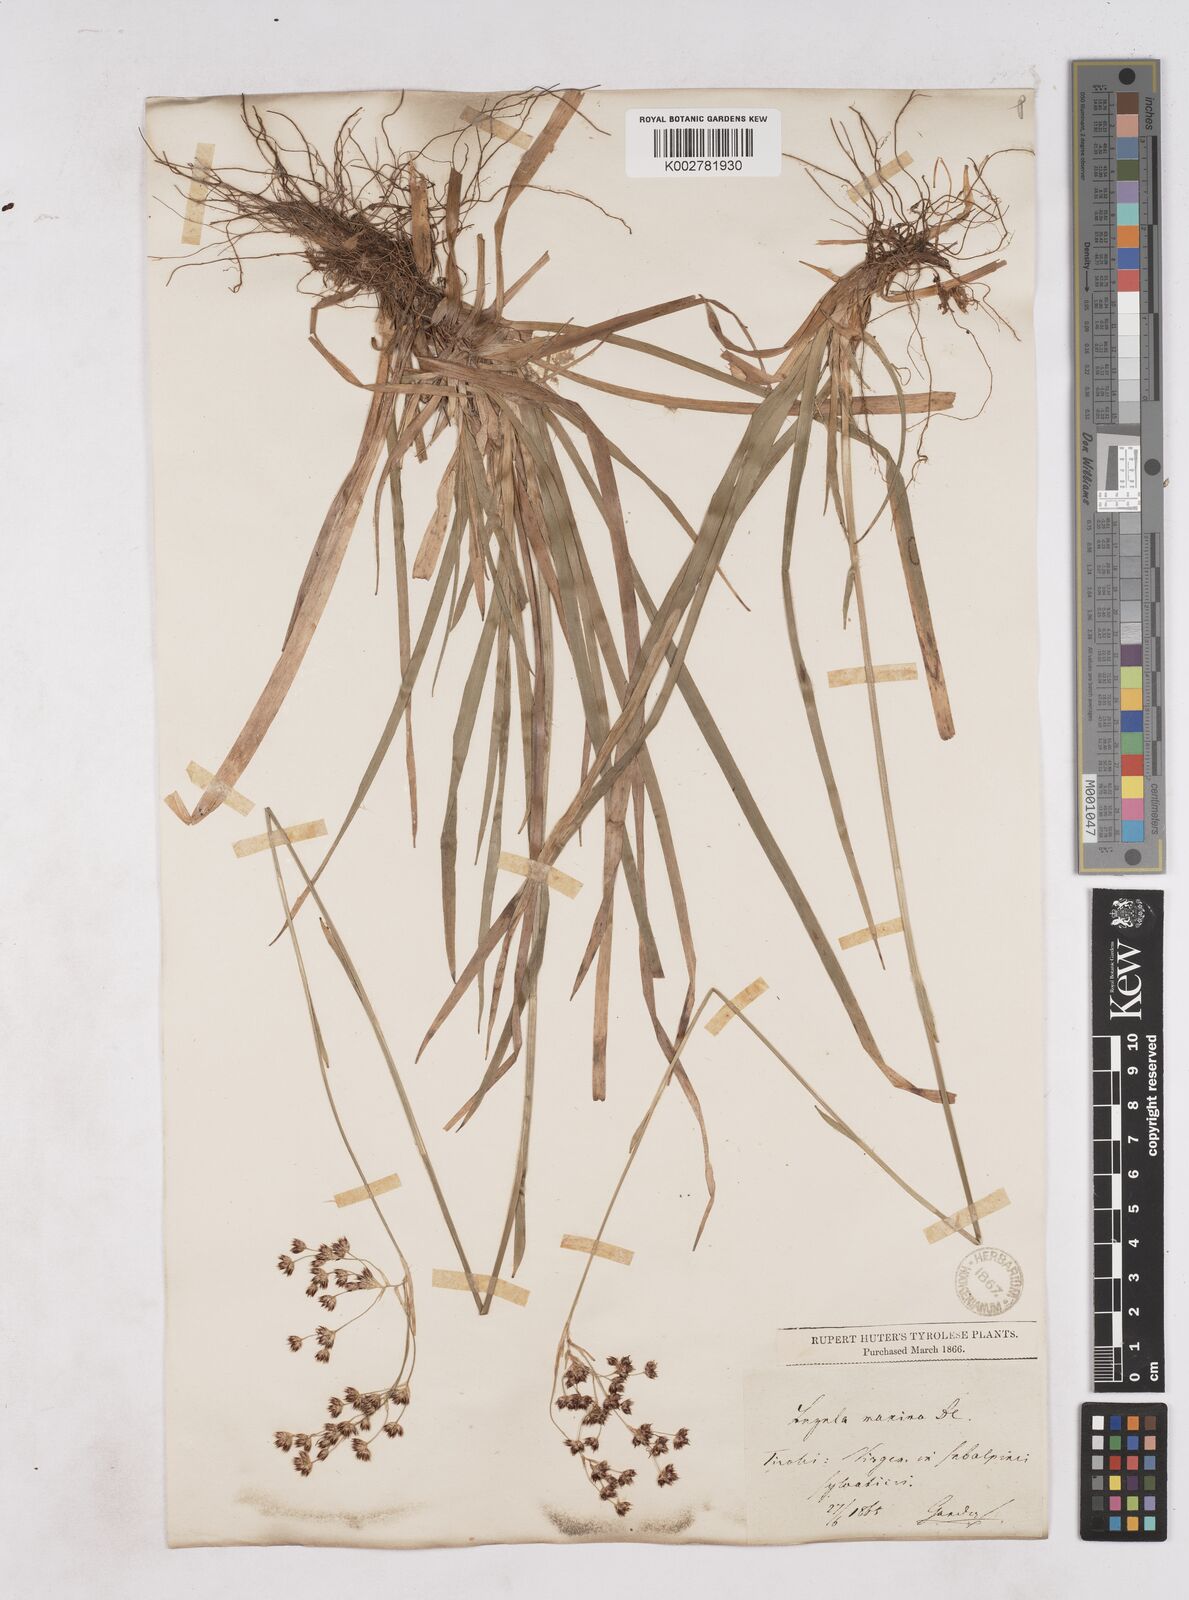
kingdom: Plantae
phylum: Tracheophyta
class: Liliopsida
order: Poales
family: Juncaceae
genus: Luzula
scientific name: Luzula sylvatica
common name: Great wood-rush
